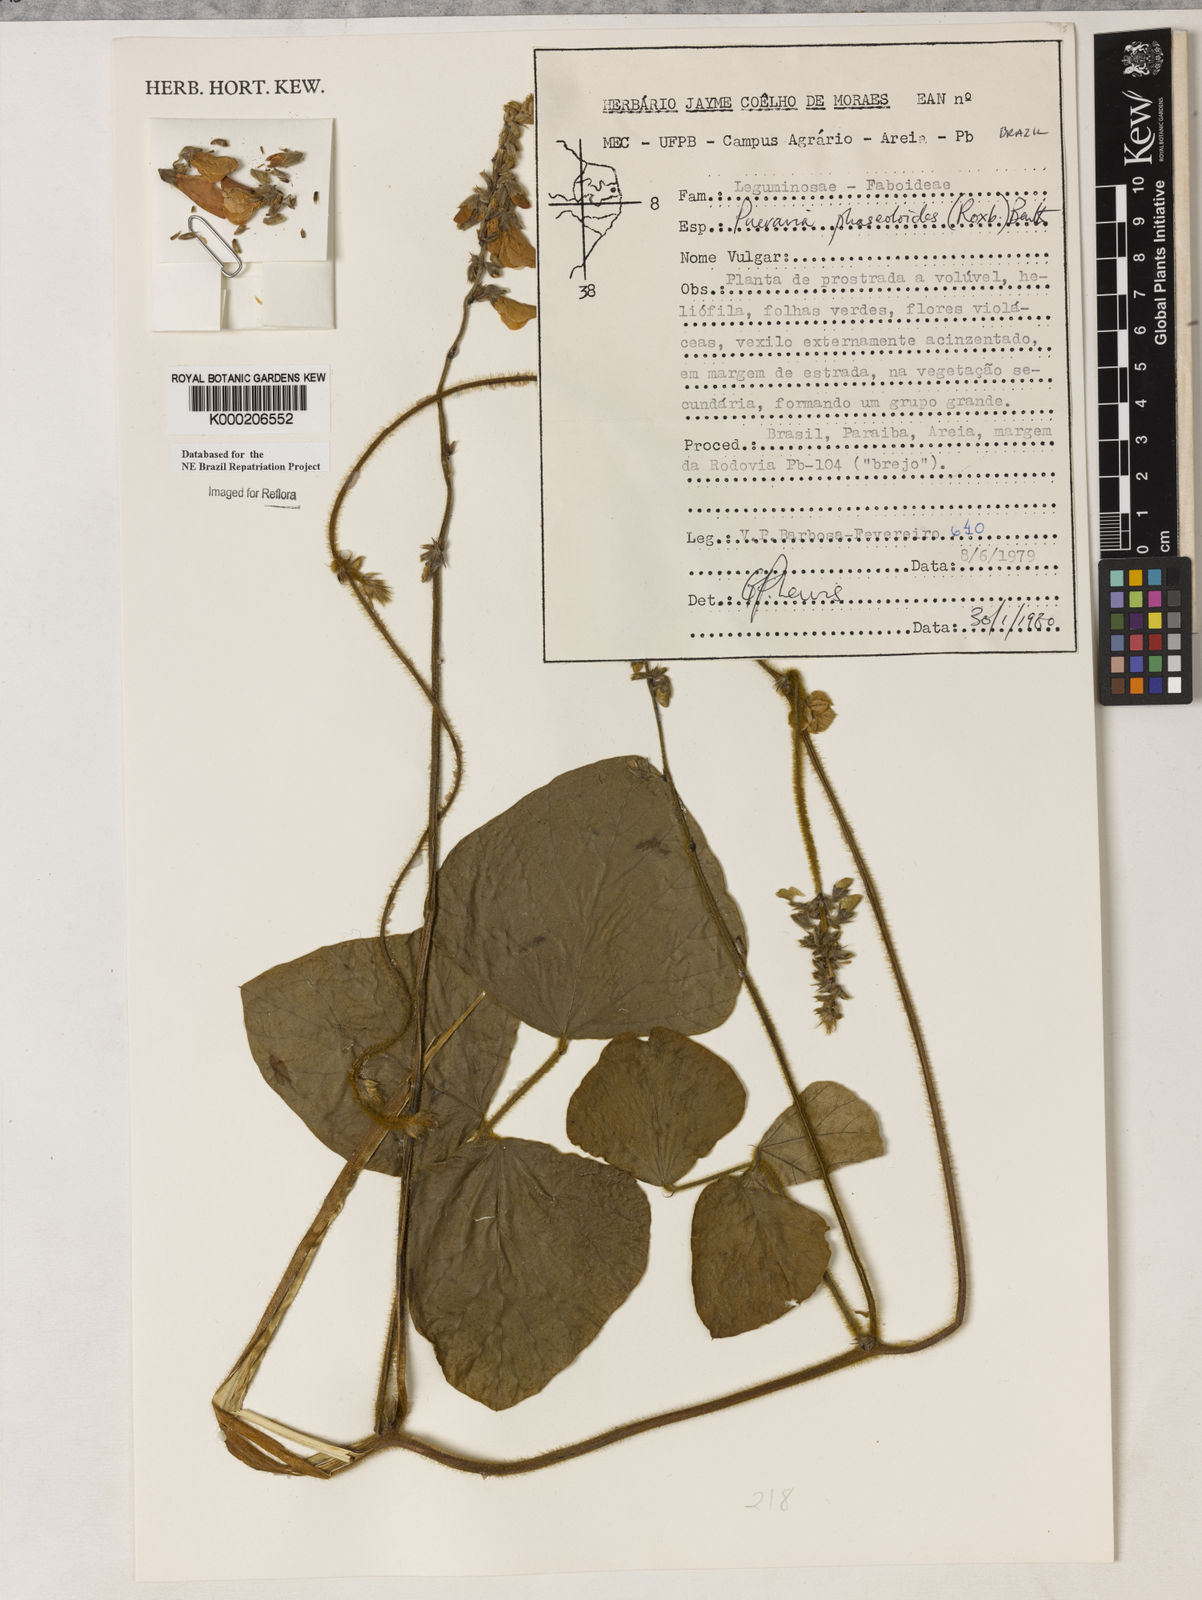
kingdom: Plantae
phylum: Tracheophyta
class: Magnoliopsida
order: Fabales
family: Fabaceae
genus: Neustanthus
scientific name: Neustanthus phaseoloides
